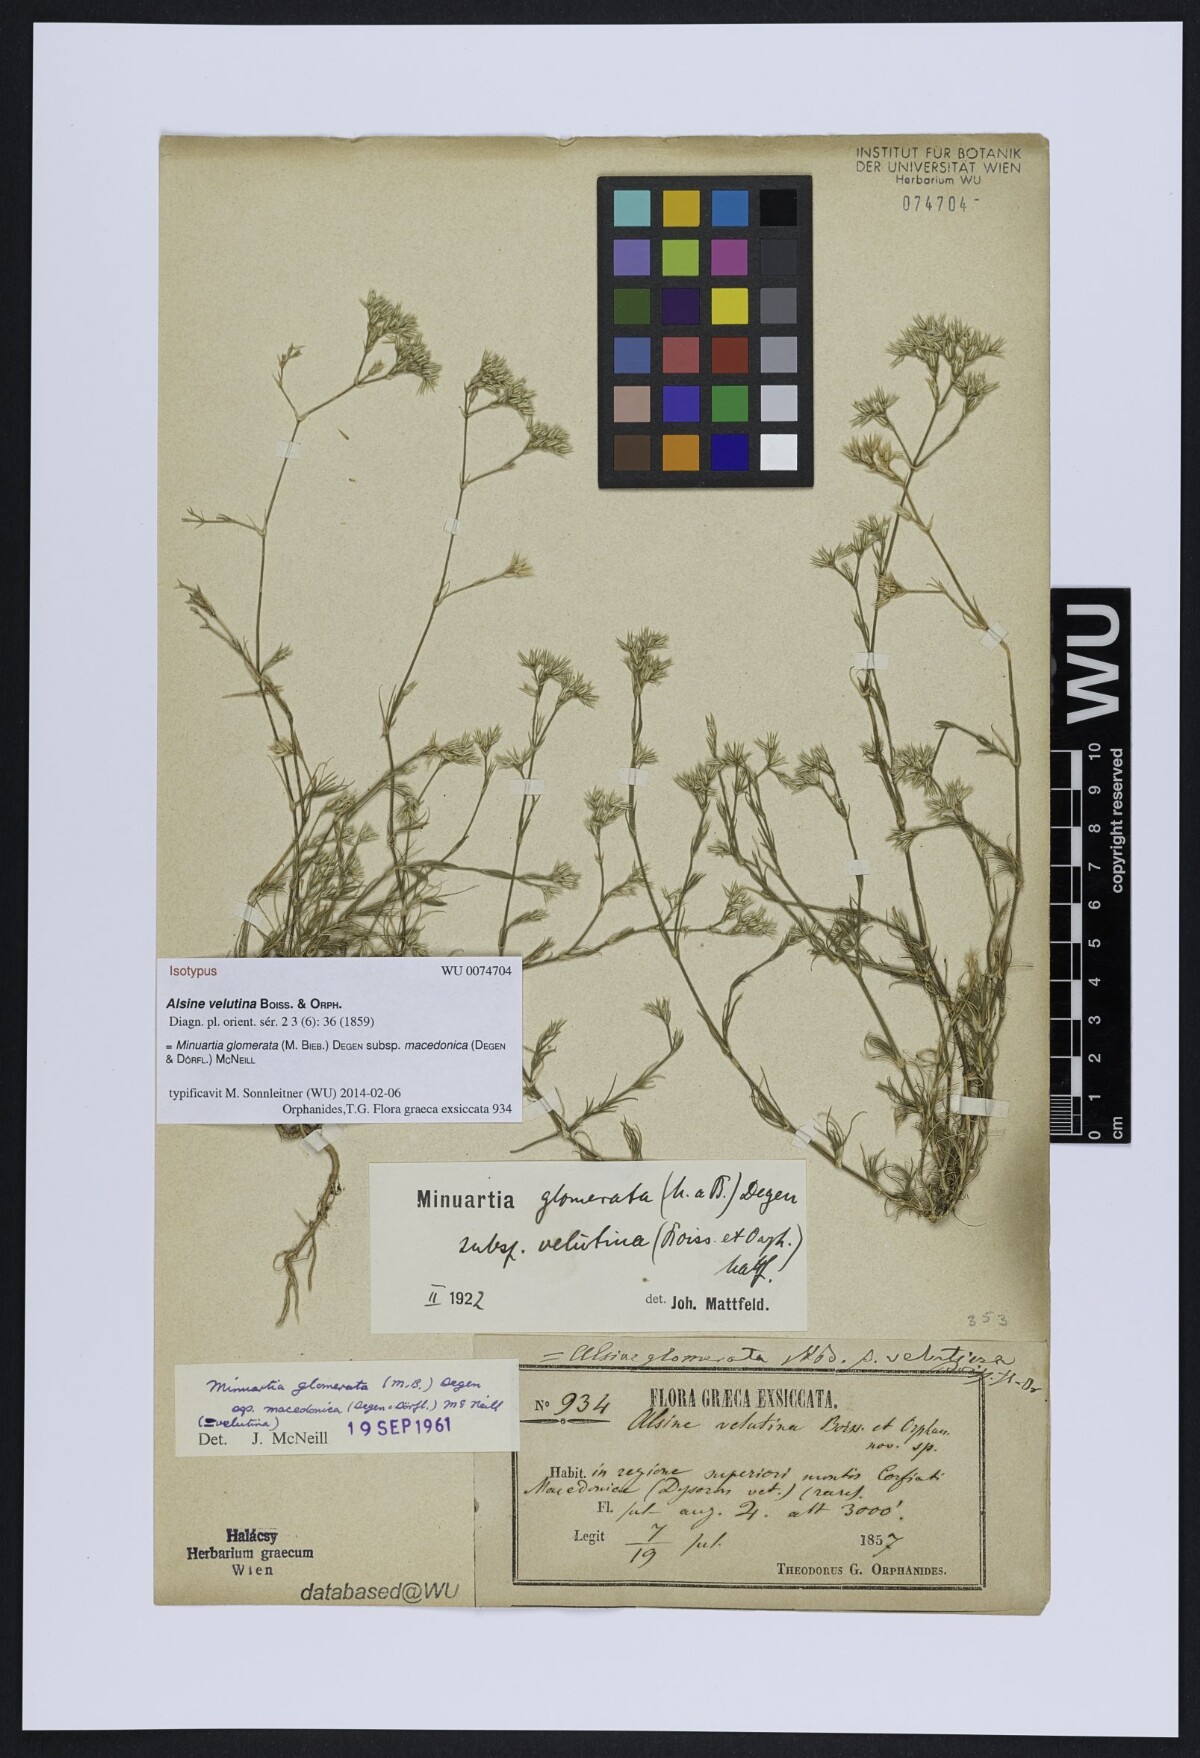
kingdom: Plantae
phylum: Tracheophyta
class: Magnoliopsida
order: Caryophyllales
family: Caryophyllaceae
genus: Minuartia
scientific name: Minuartia glomerata
